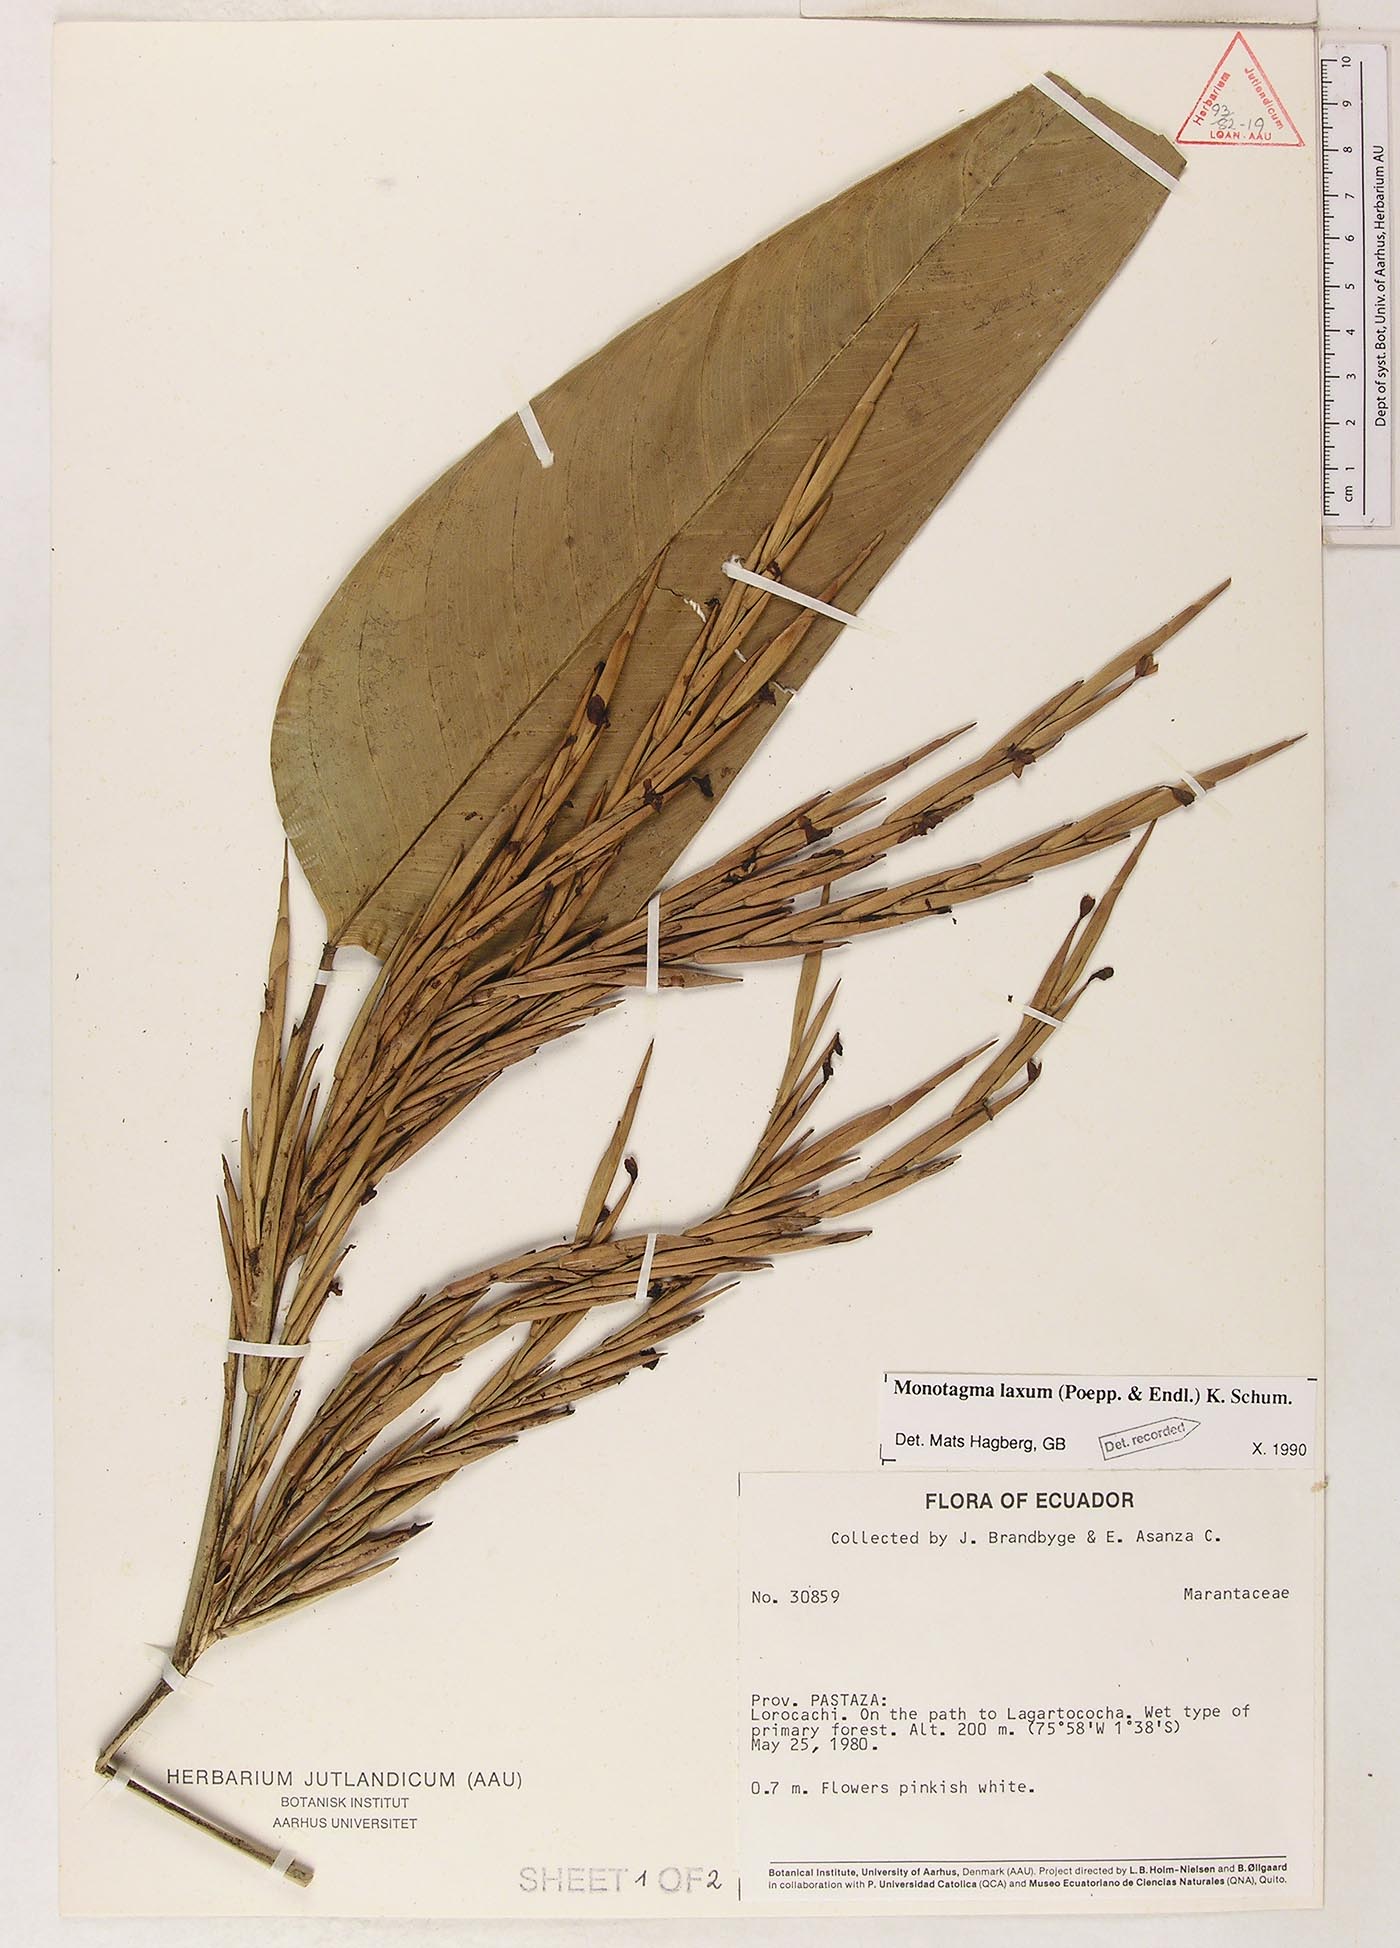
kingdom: Plantae
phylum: Tracheophyta
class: Liliopsida
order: Zingiberales
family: Marantaceae
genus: Monotagma
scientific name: Monotagma laxum
